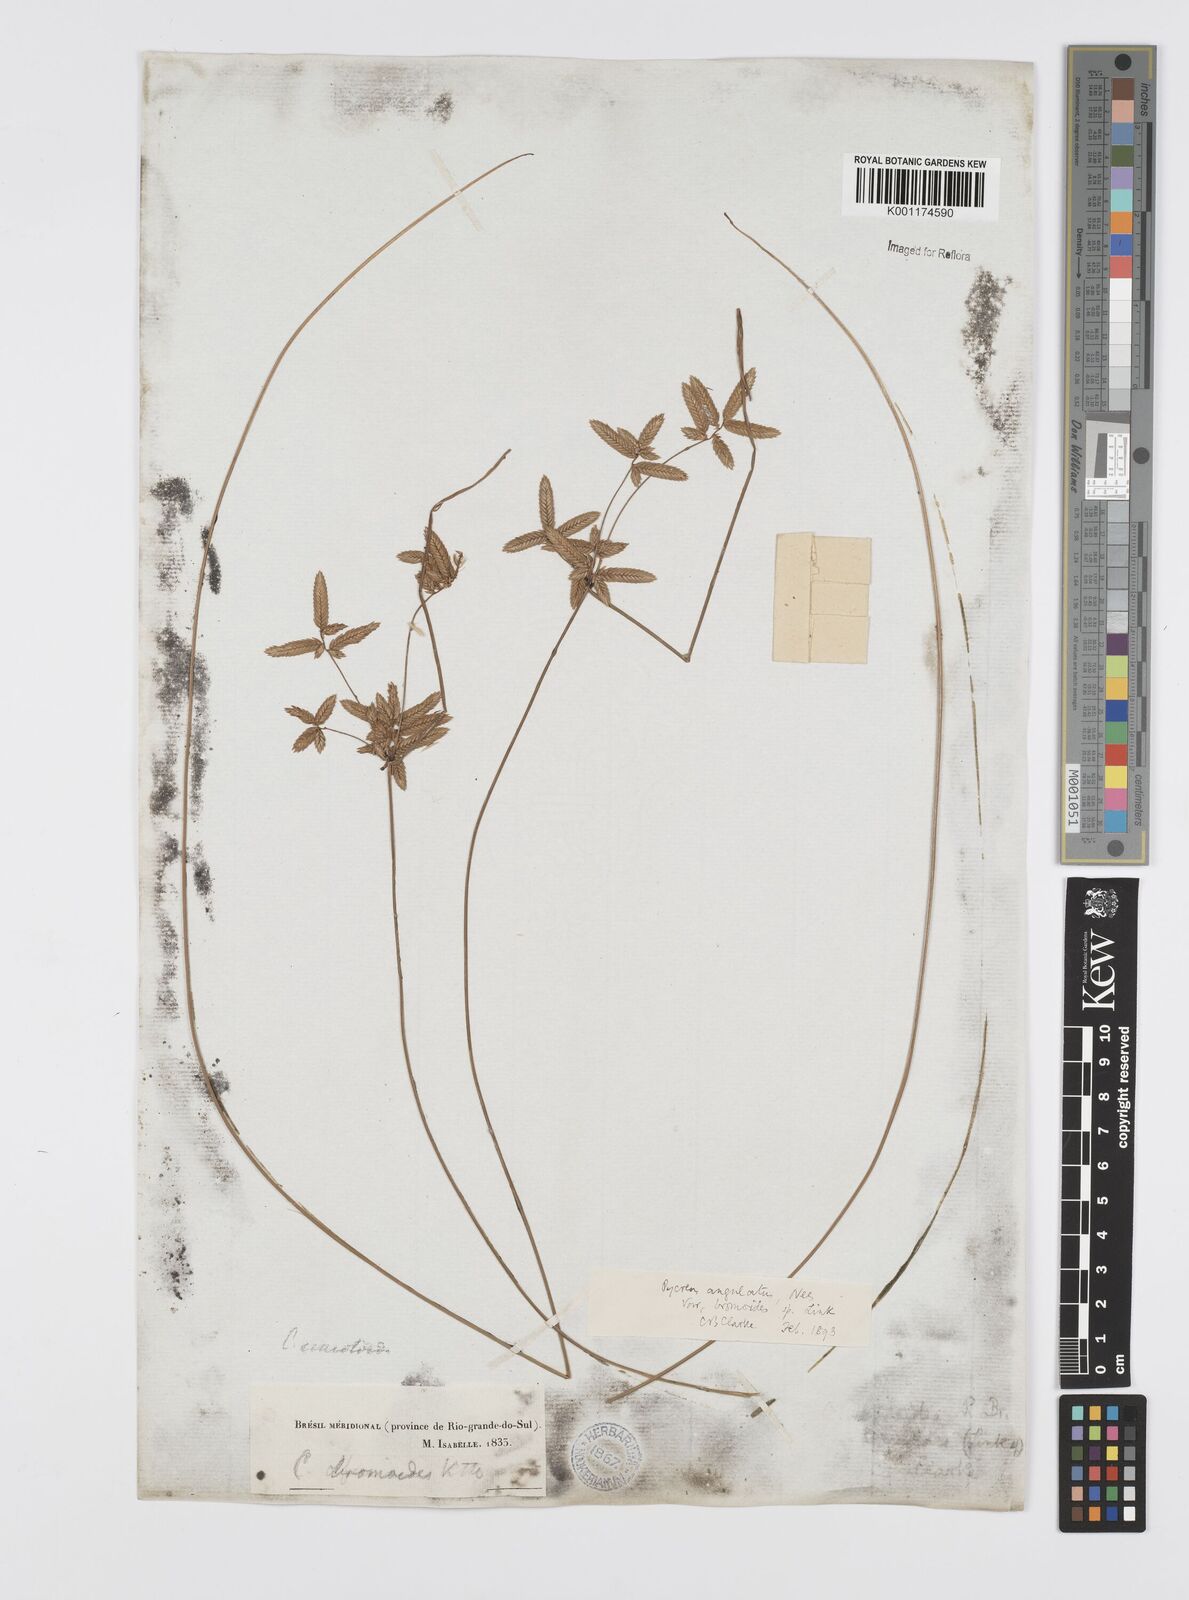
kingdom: Plantae
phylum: Tracheophyta
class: Liliopsida
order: Poales
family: Cyperaceae
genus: Cyperus
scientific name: Cyperus unioloides
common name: Uniola flatsedge
